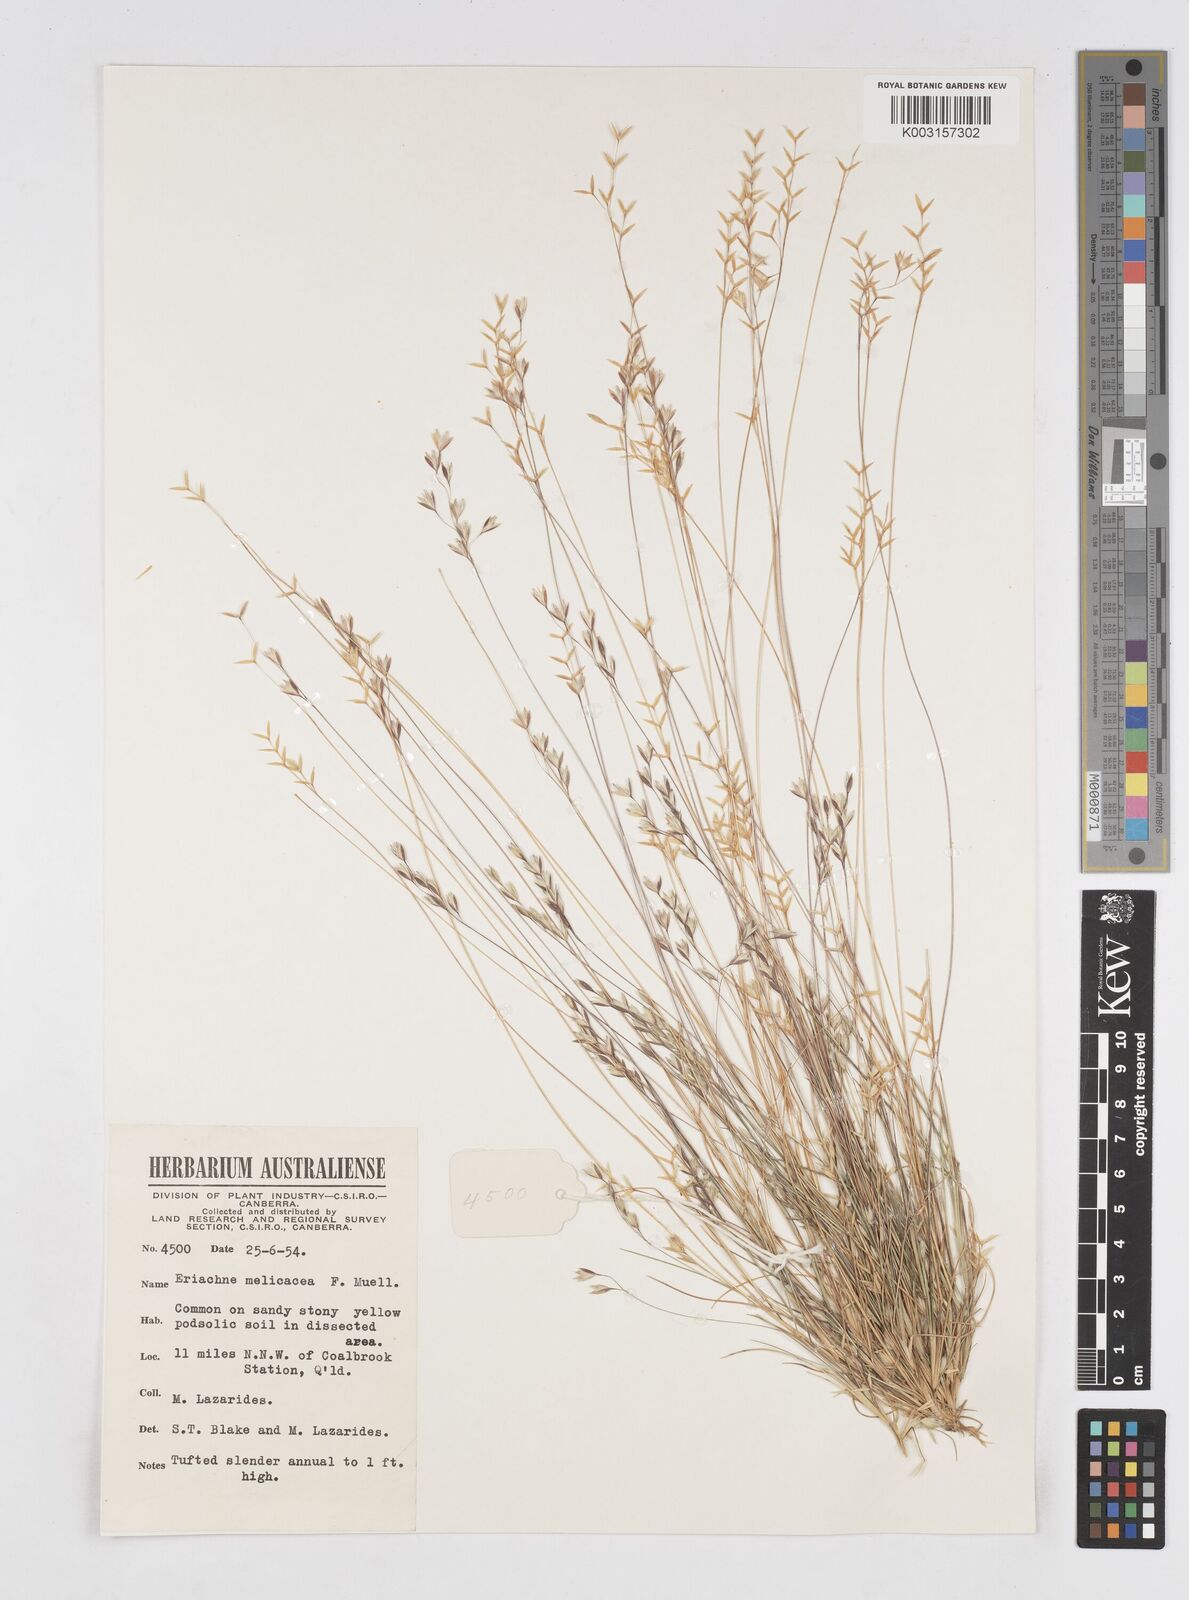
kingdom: Plantae
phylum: Tracheophyta
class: Liliopsida
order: Poales
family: Poaceae
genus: Eriachne
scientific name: Eriachne melicacea
